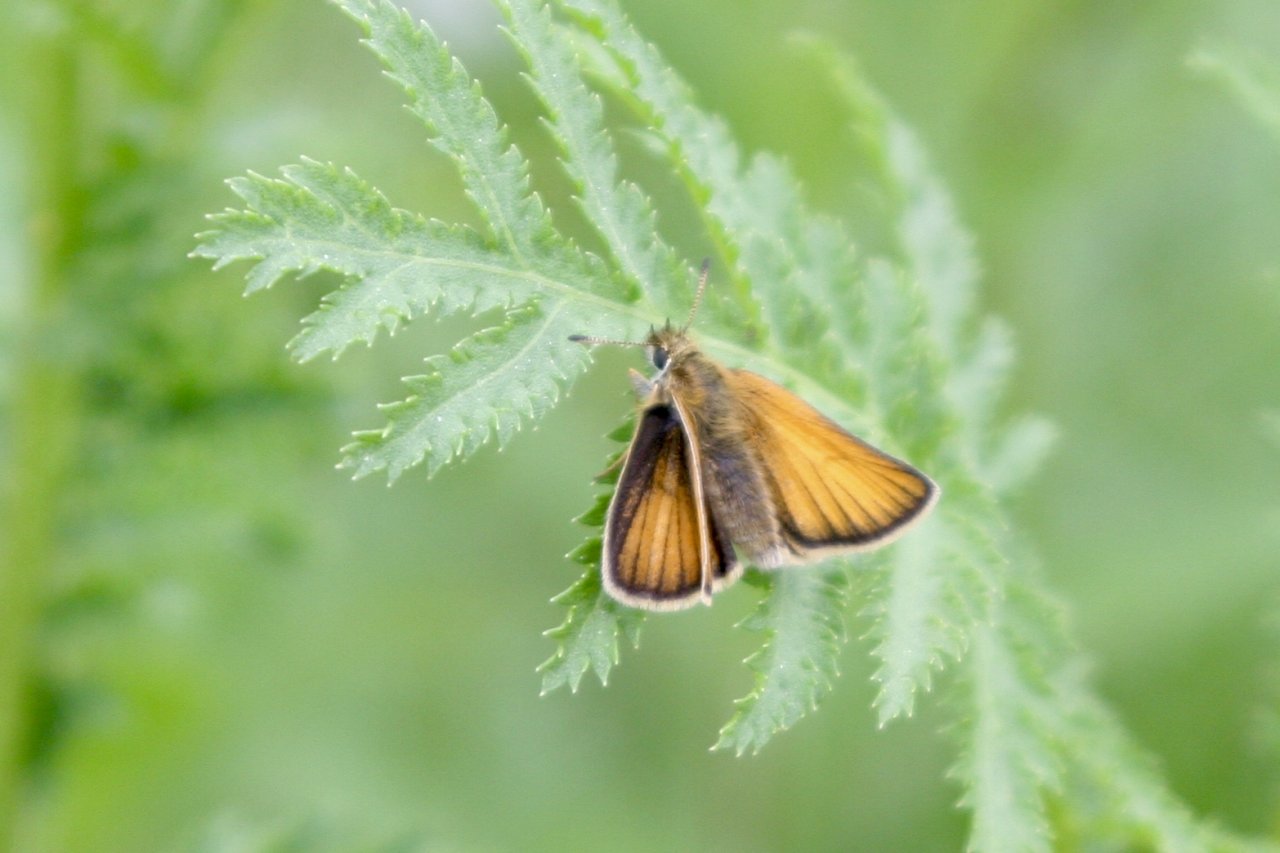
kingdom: Animalia
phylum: Arthropoda
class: Insecta
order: Lepidoptera
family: Hesperiidae
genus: Thymelicus
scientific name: Thymelicus lineola
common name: European Skipper
